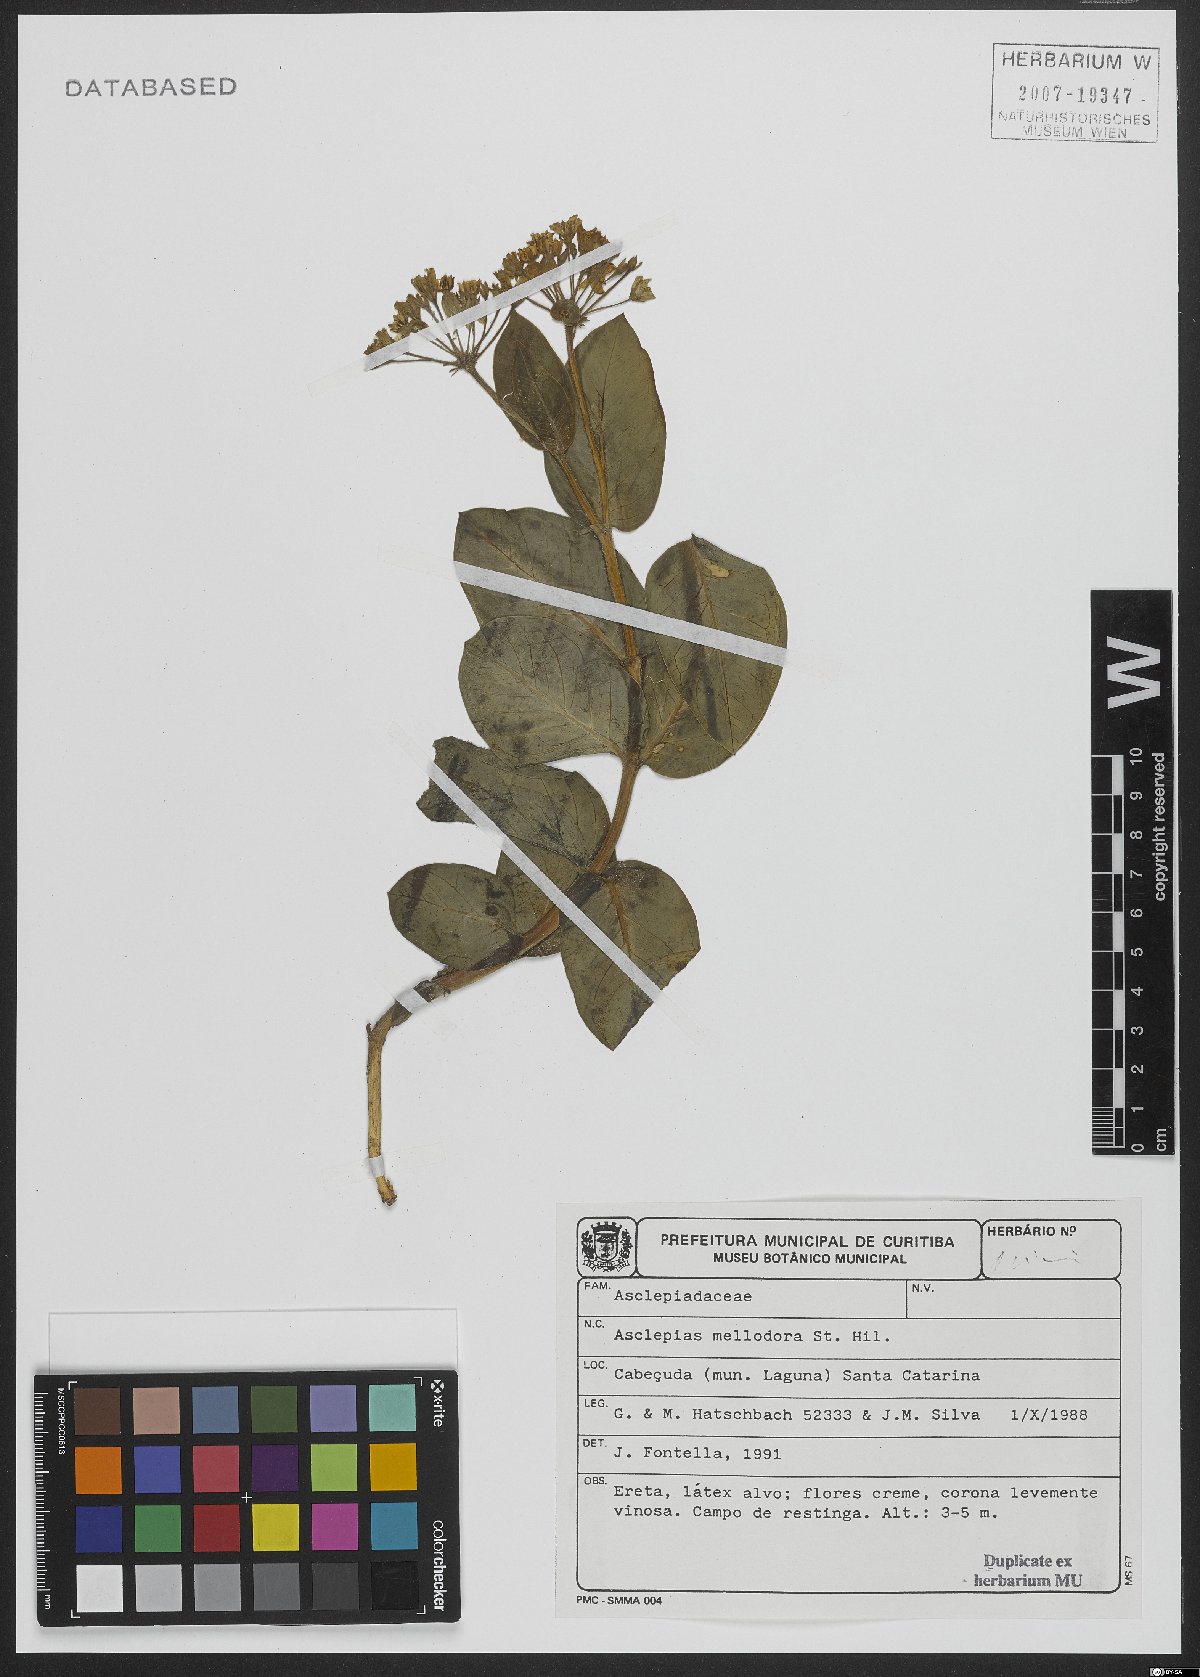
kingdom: Plantae
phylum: Tracheophyta
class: Magnoliopsida
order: Gentianales
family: Apocynaceae
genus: Asclepias
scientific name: Asclepias mellodora
